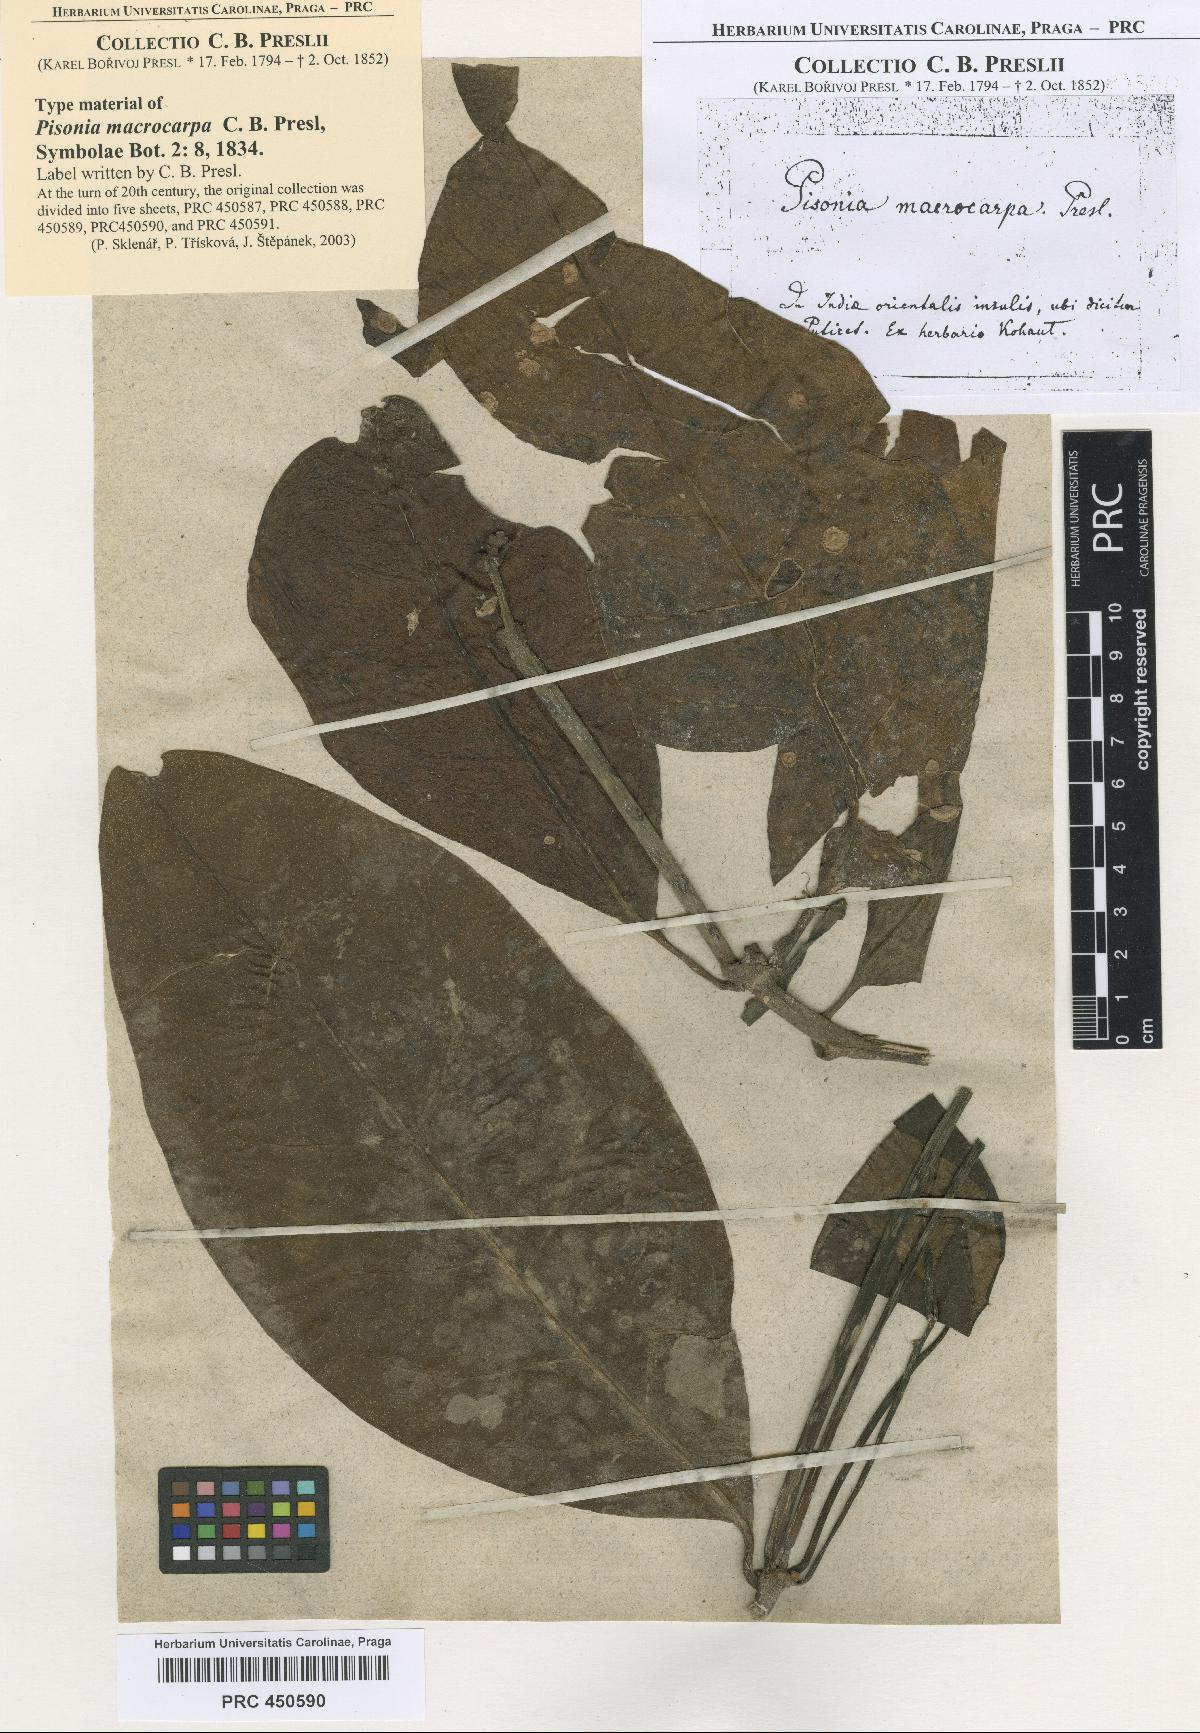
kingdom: Plantae
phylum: Tracheophyta
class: Magnoliopsida
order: Caryophyllales
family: Nyctaginaceae
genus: Ceodes
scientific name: Ceodes umbellifera
